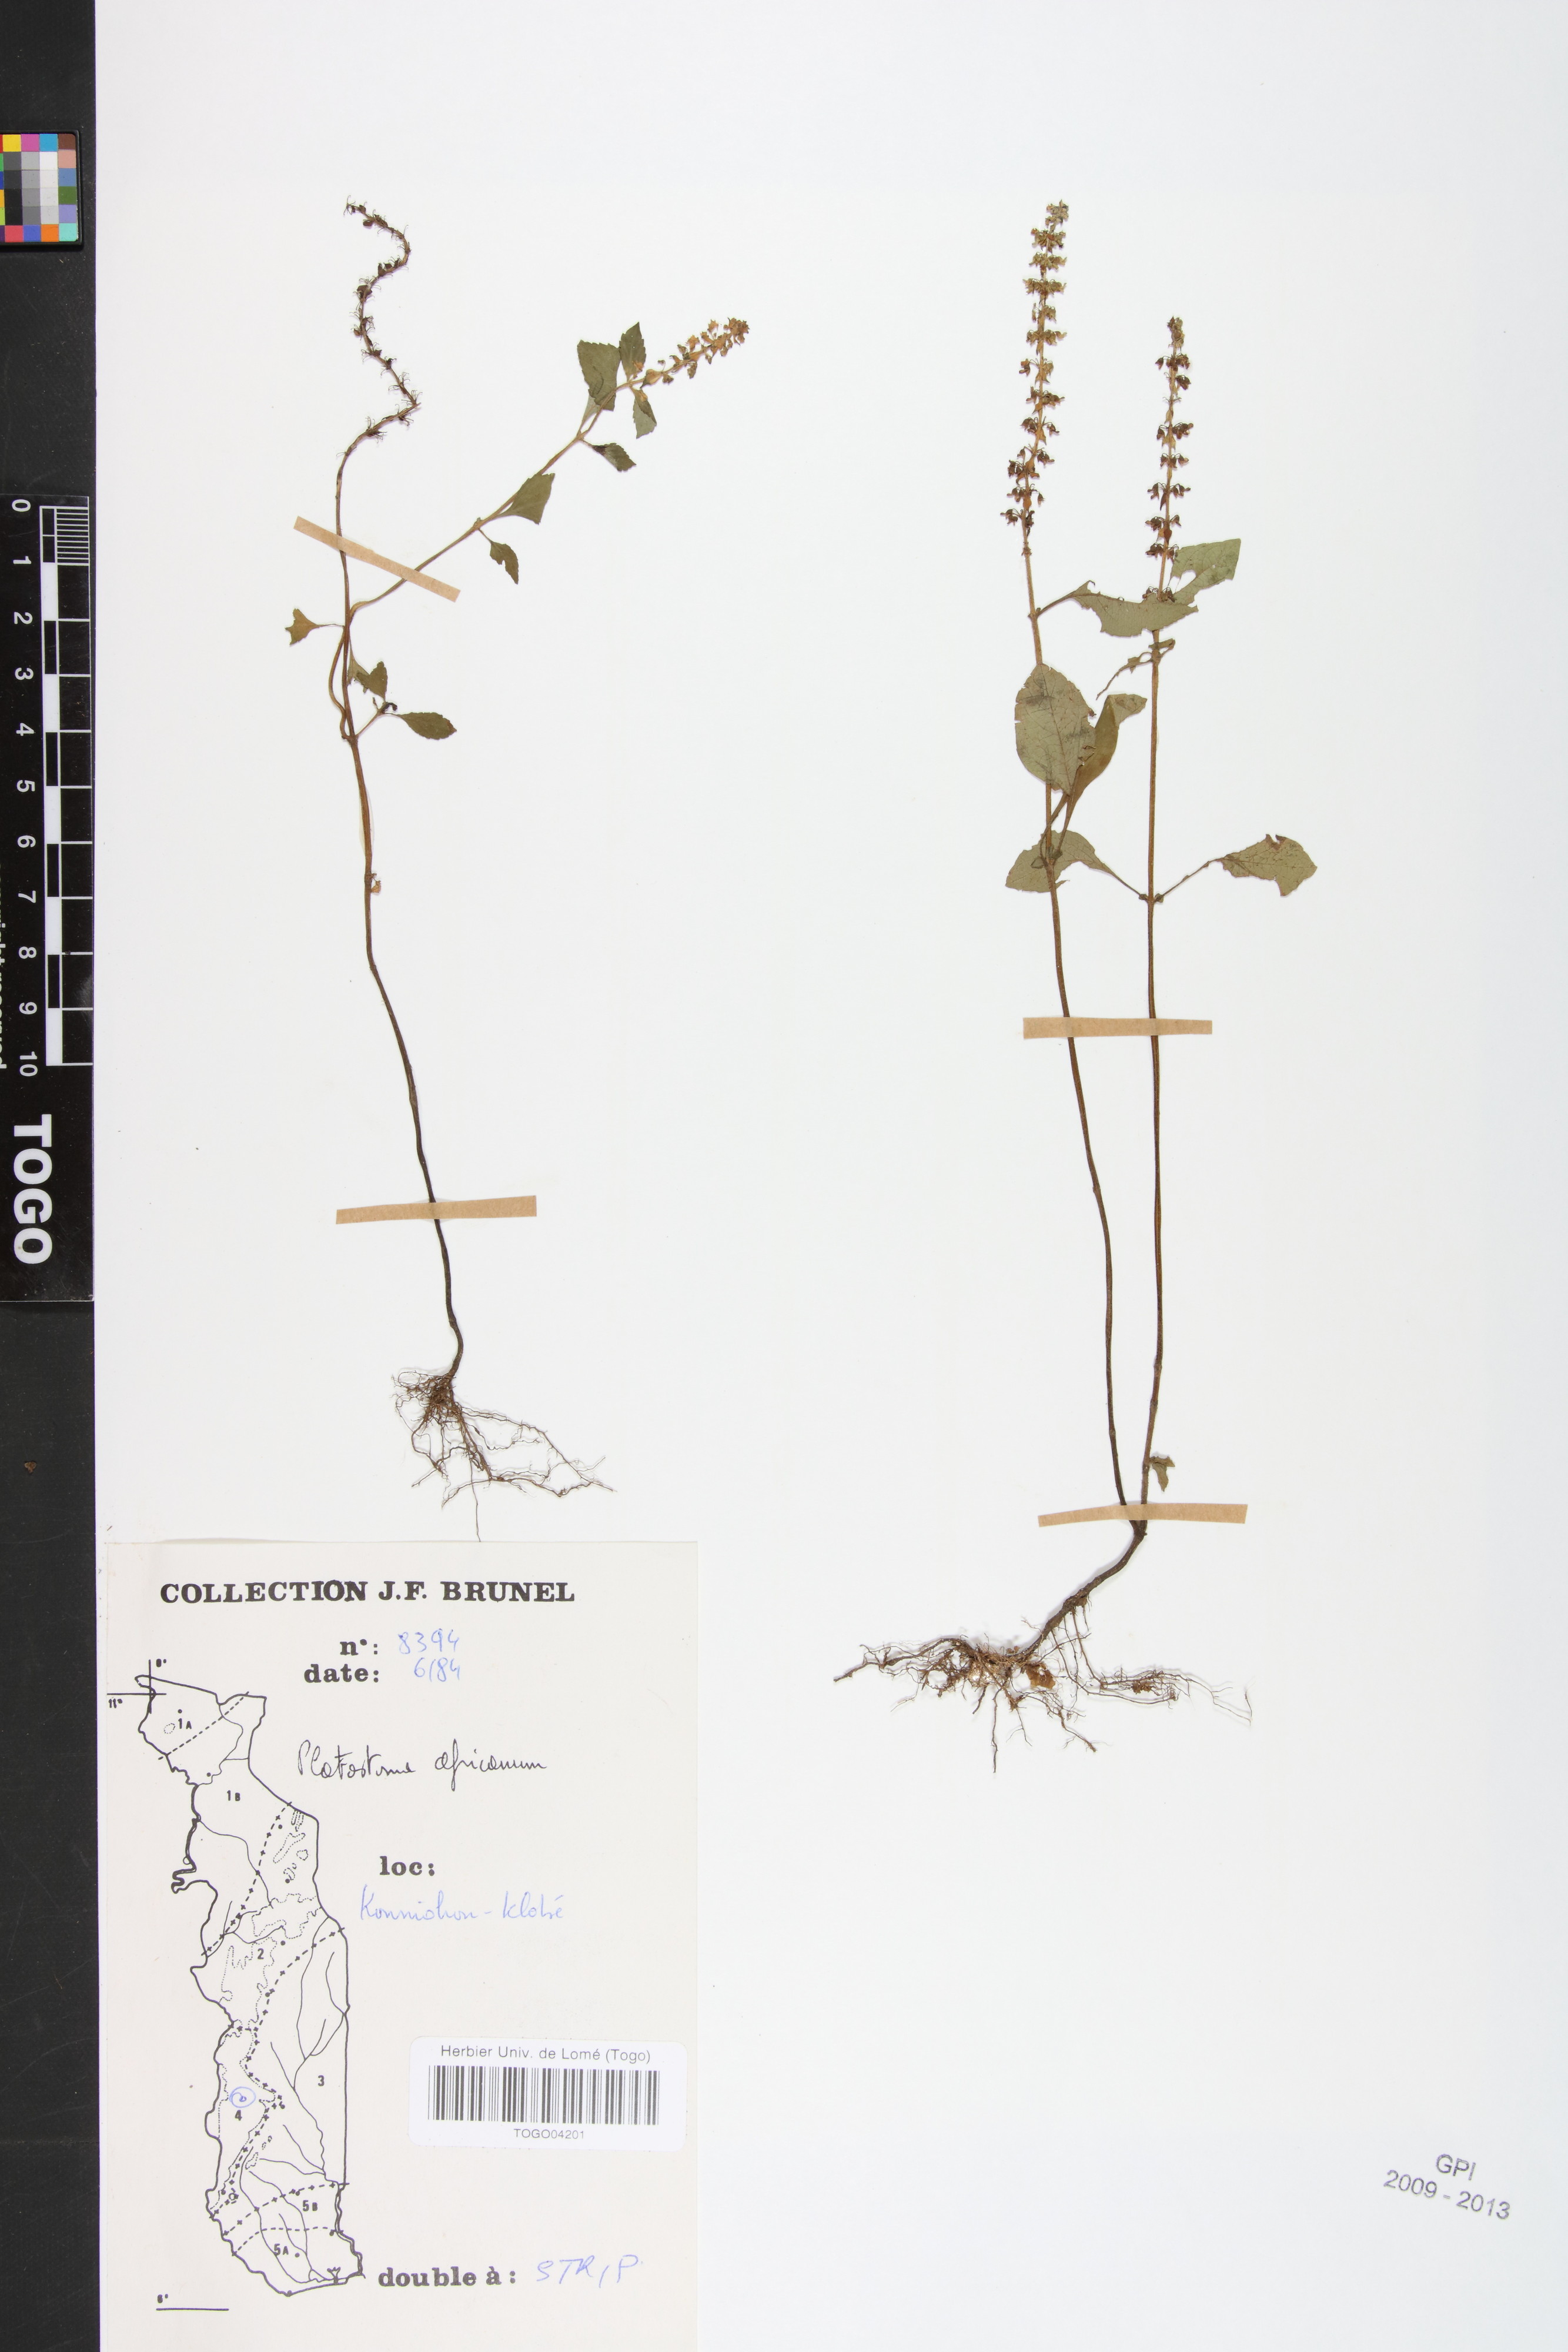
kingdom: Plantae
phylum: Tracheophyta
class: Magnoliopsida
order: Lamiales
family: Lamiaceae
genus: Platostoma
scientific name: Platostoma africanum
